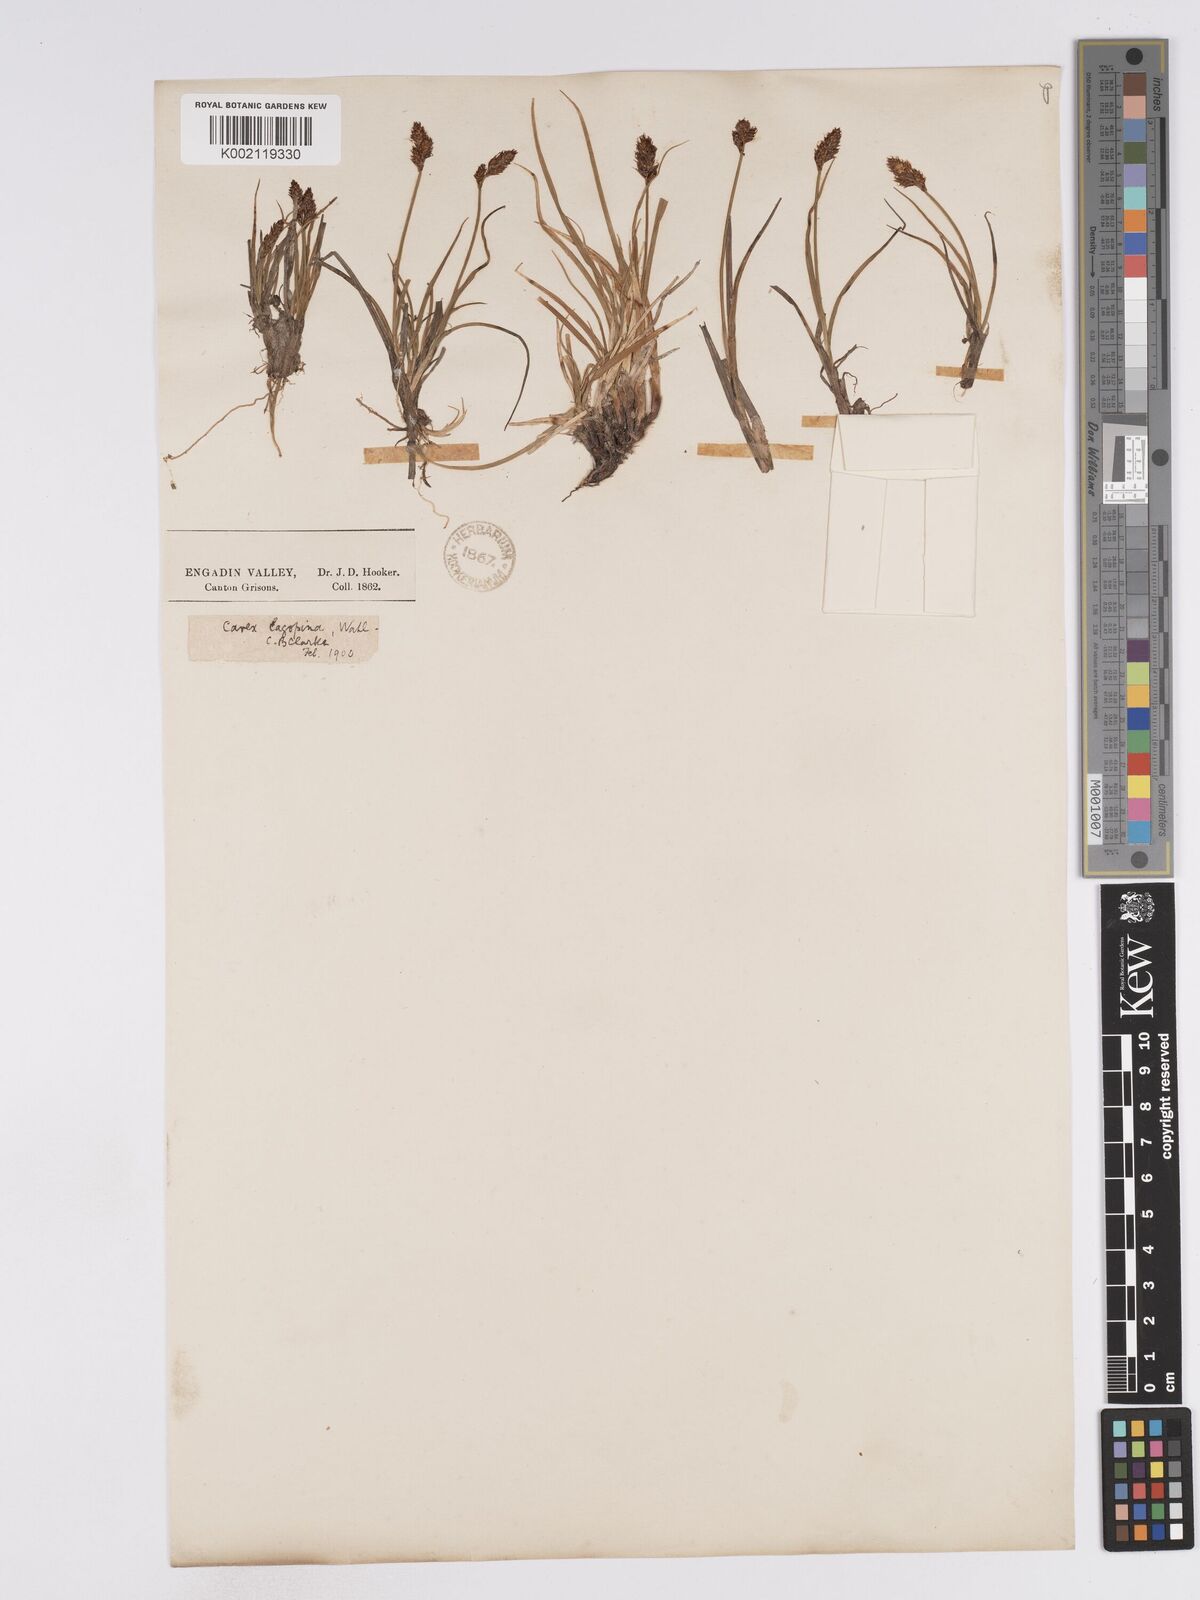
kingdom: Plantae
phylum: Tracheophyta
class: Liliopsida
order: Poales
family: Cyperaceae
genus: Carex
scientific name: Carex lachenalii
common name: Hare's-foot sedge
